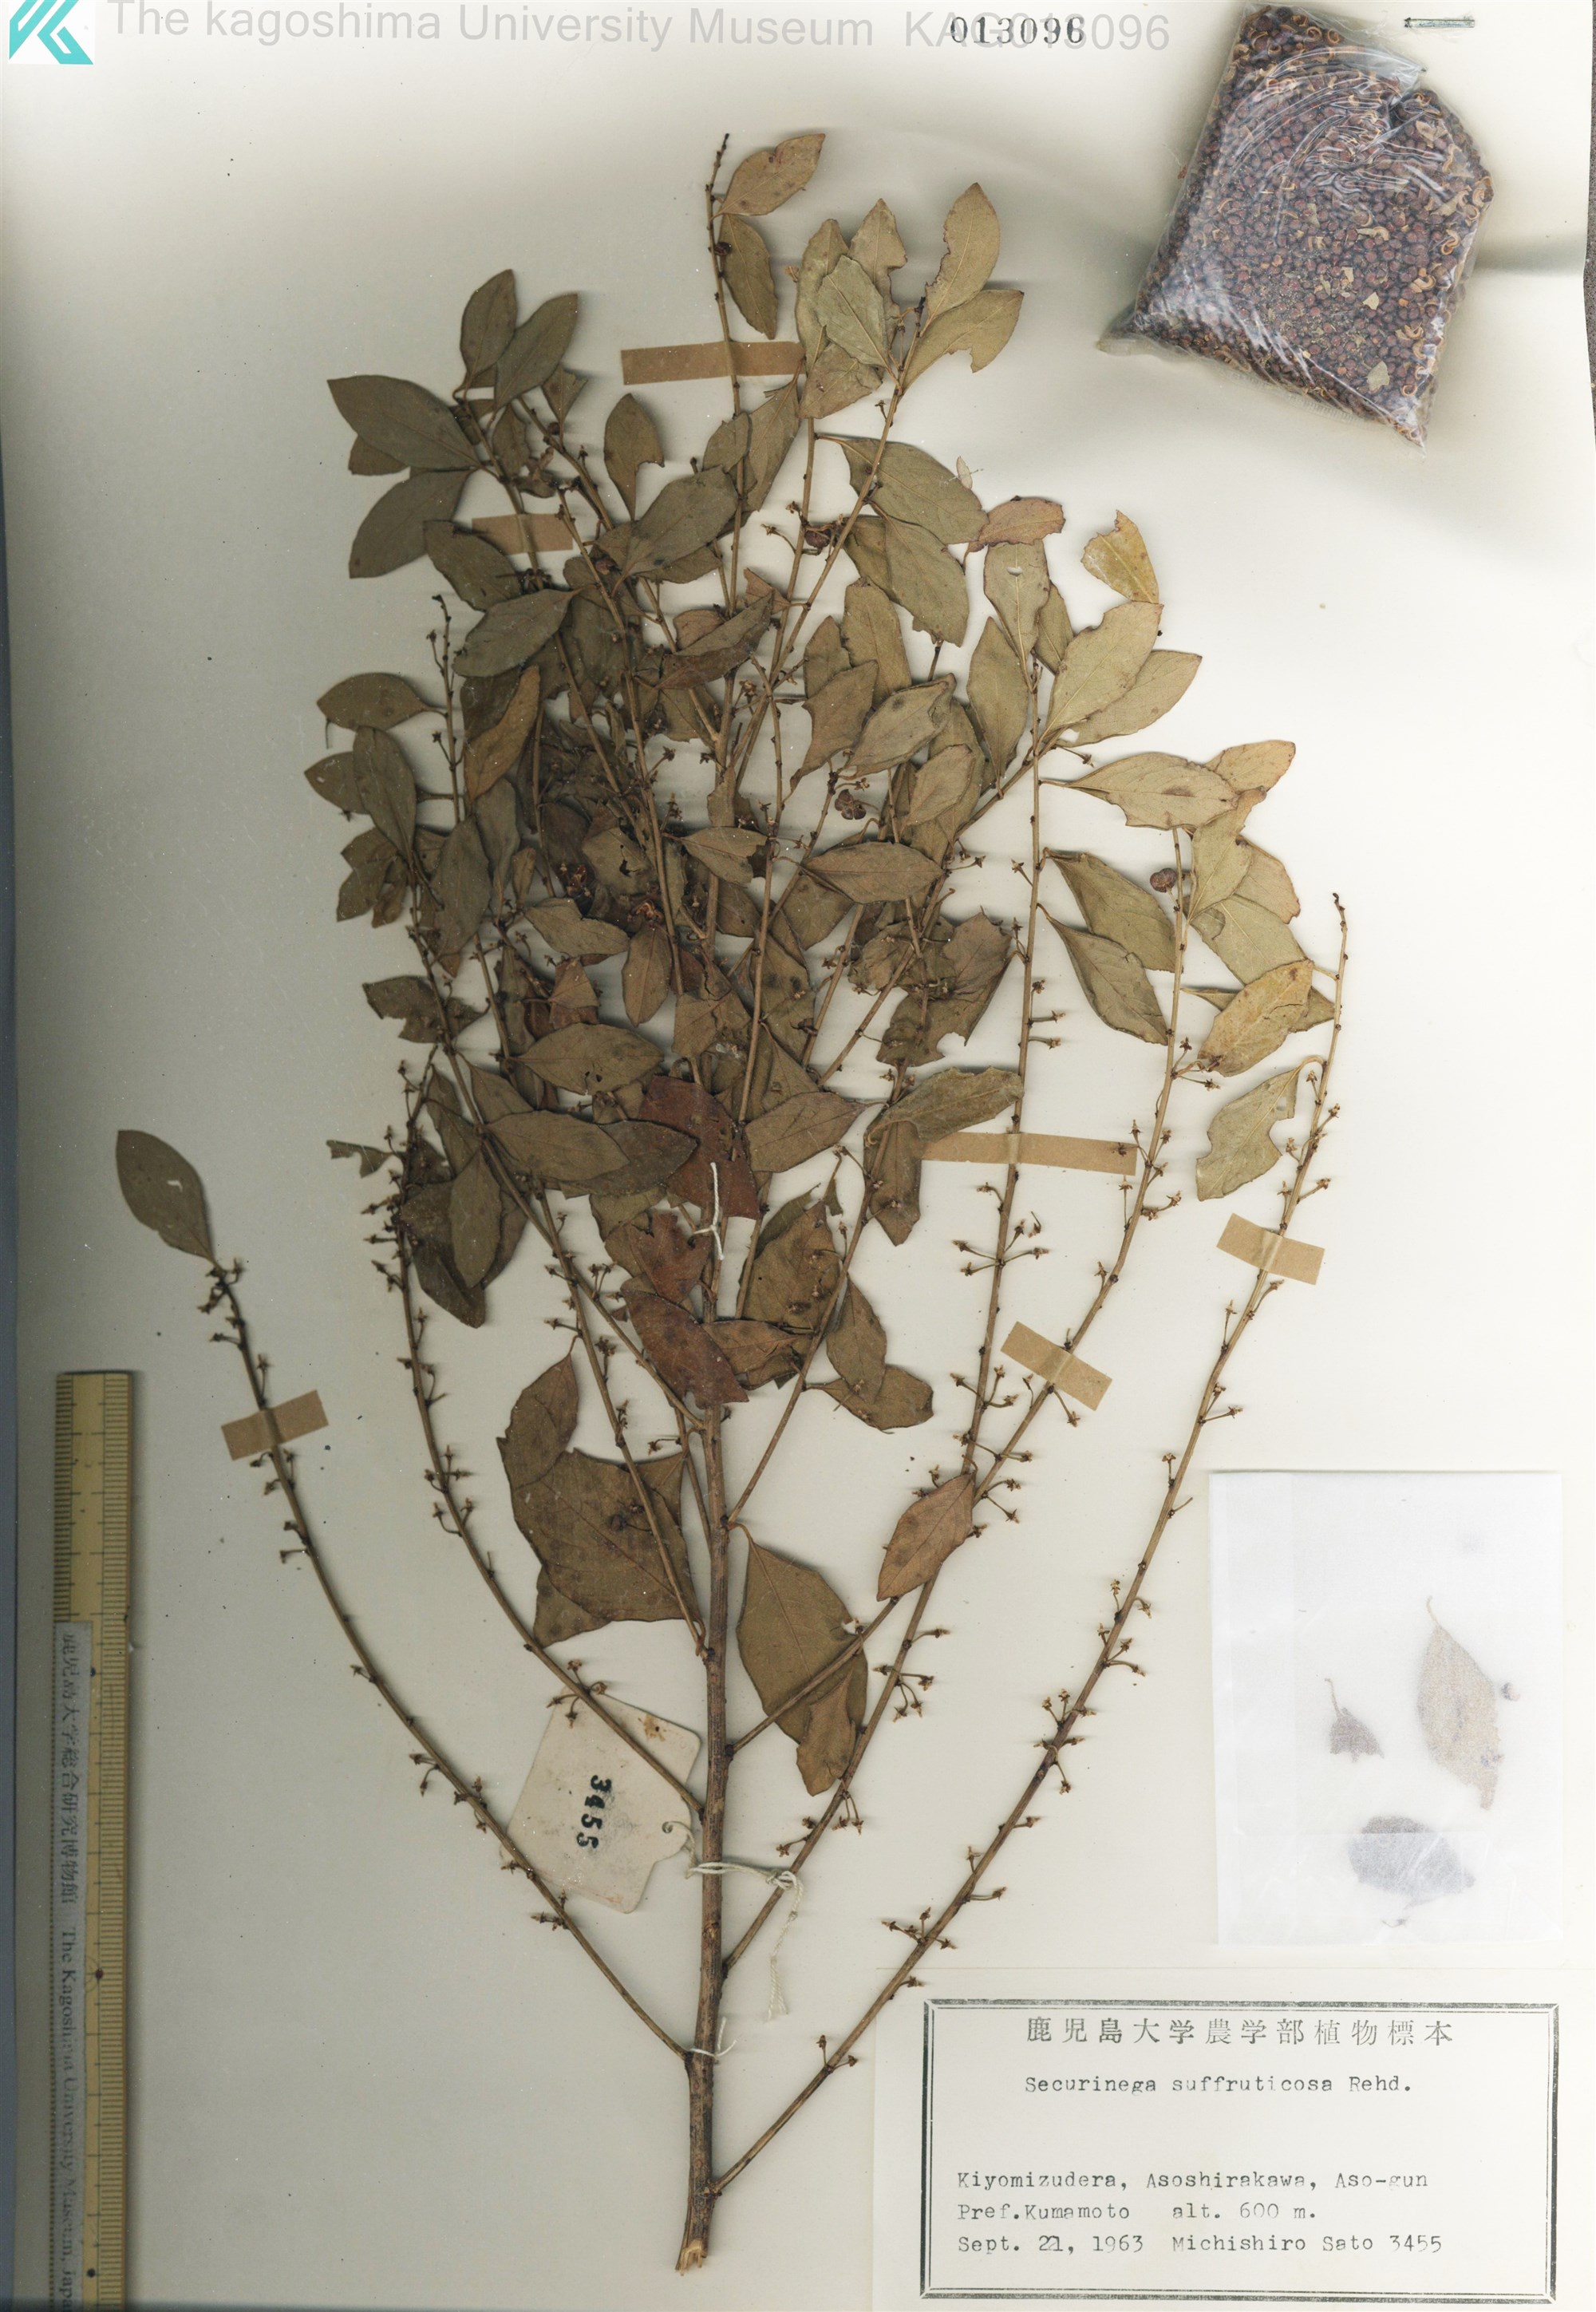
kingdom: Plantae
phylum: Tracheophyta
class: Magnoliopsida
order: Malpighiales
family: Phyllanthaceae
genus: Flueggea
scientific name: Flueggea suffruticosa
